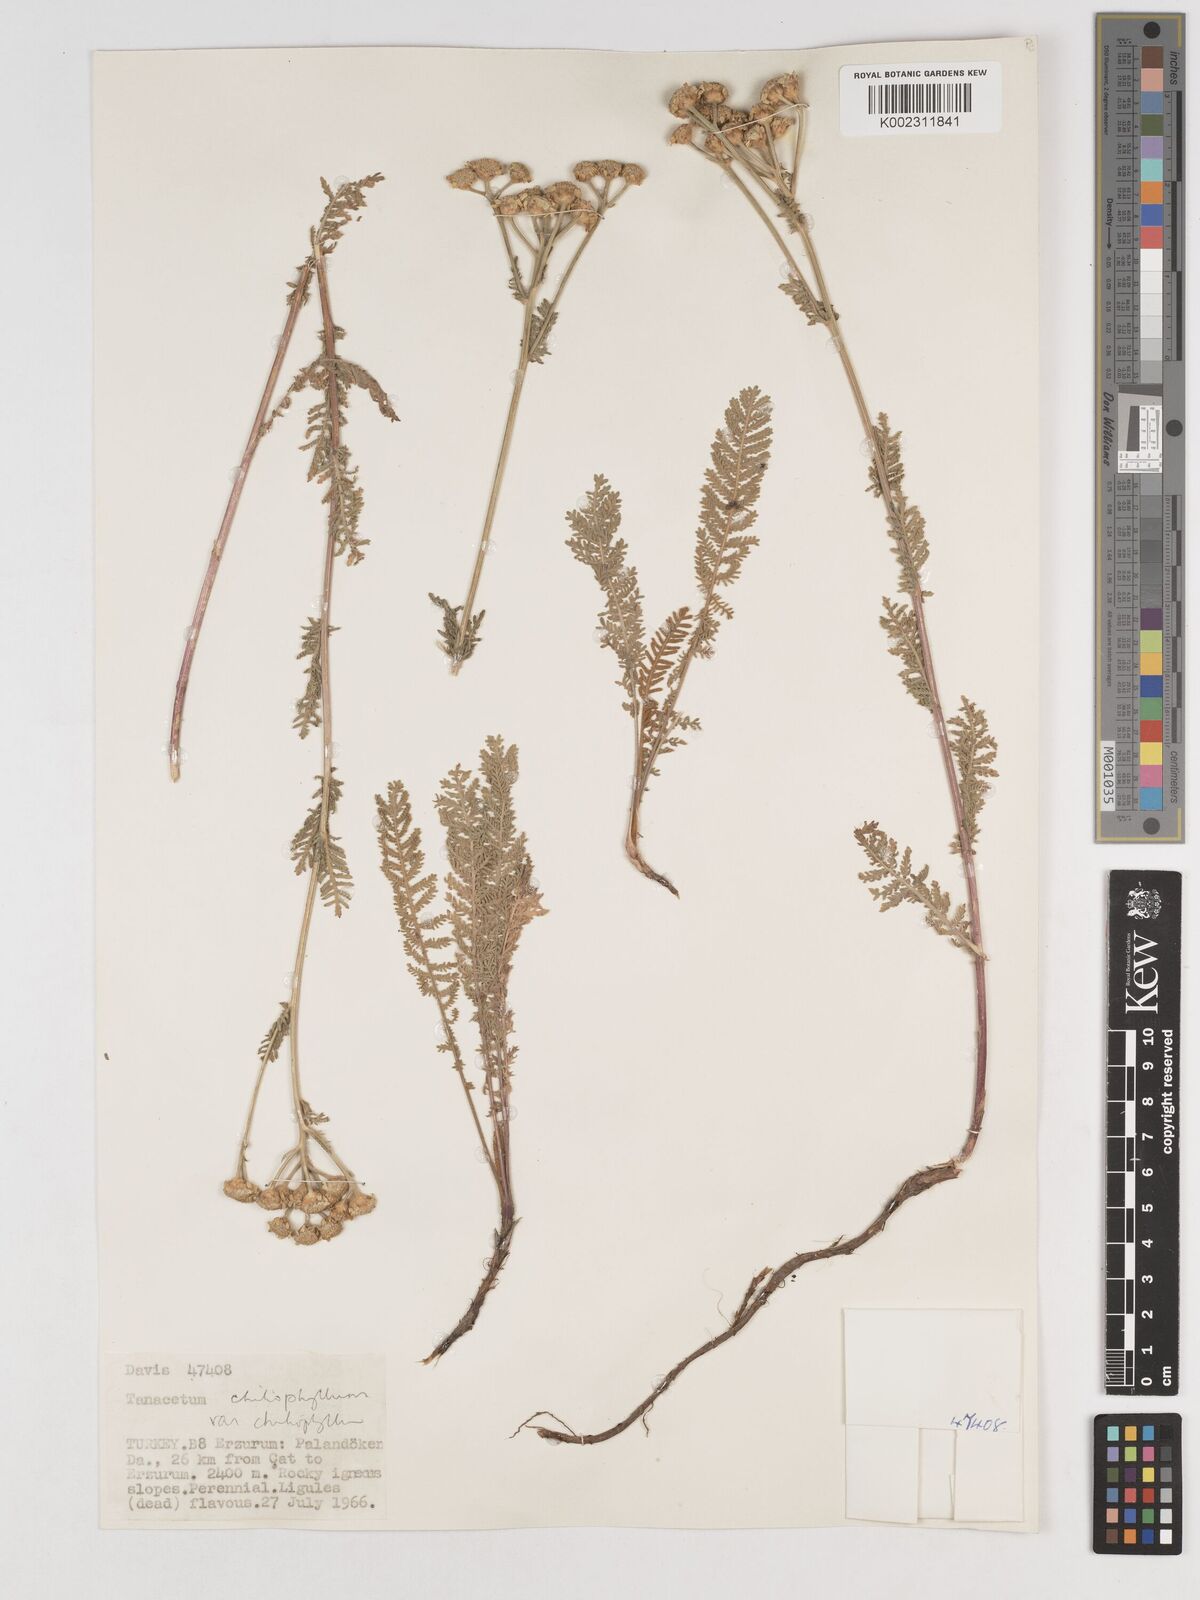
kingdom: Plantae
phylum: Tracheophyta
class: Magnoliopsida
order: Asterales
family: Asteraceae
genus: Tanacetum
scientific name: Tanacetum aureum
